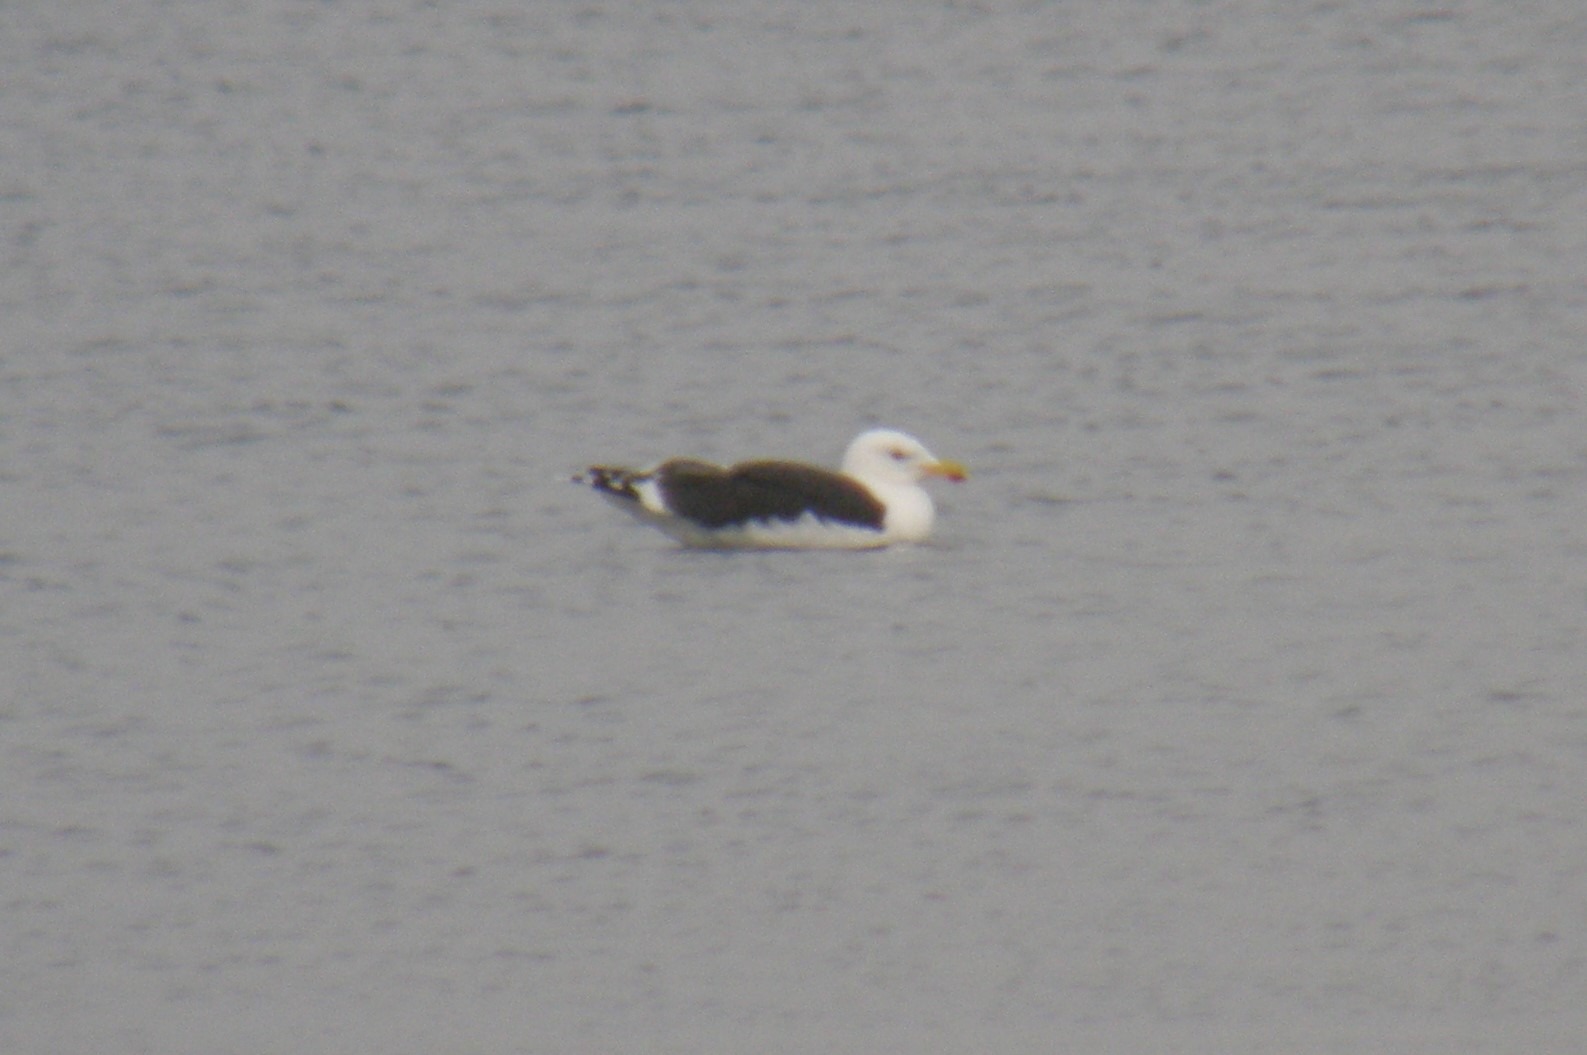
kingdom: Animalia
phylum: Chordata
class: Aves
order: Charadriiformes
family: Laridae
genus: Larus
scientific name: Larus marinus
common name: Svartbag
